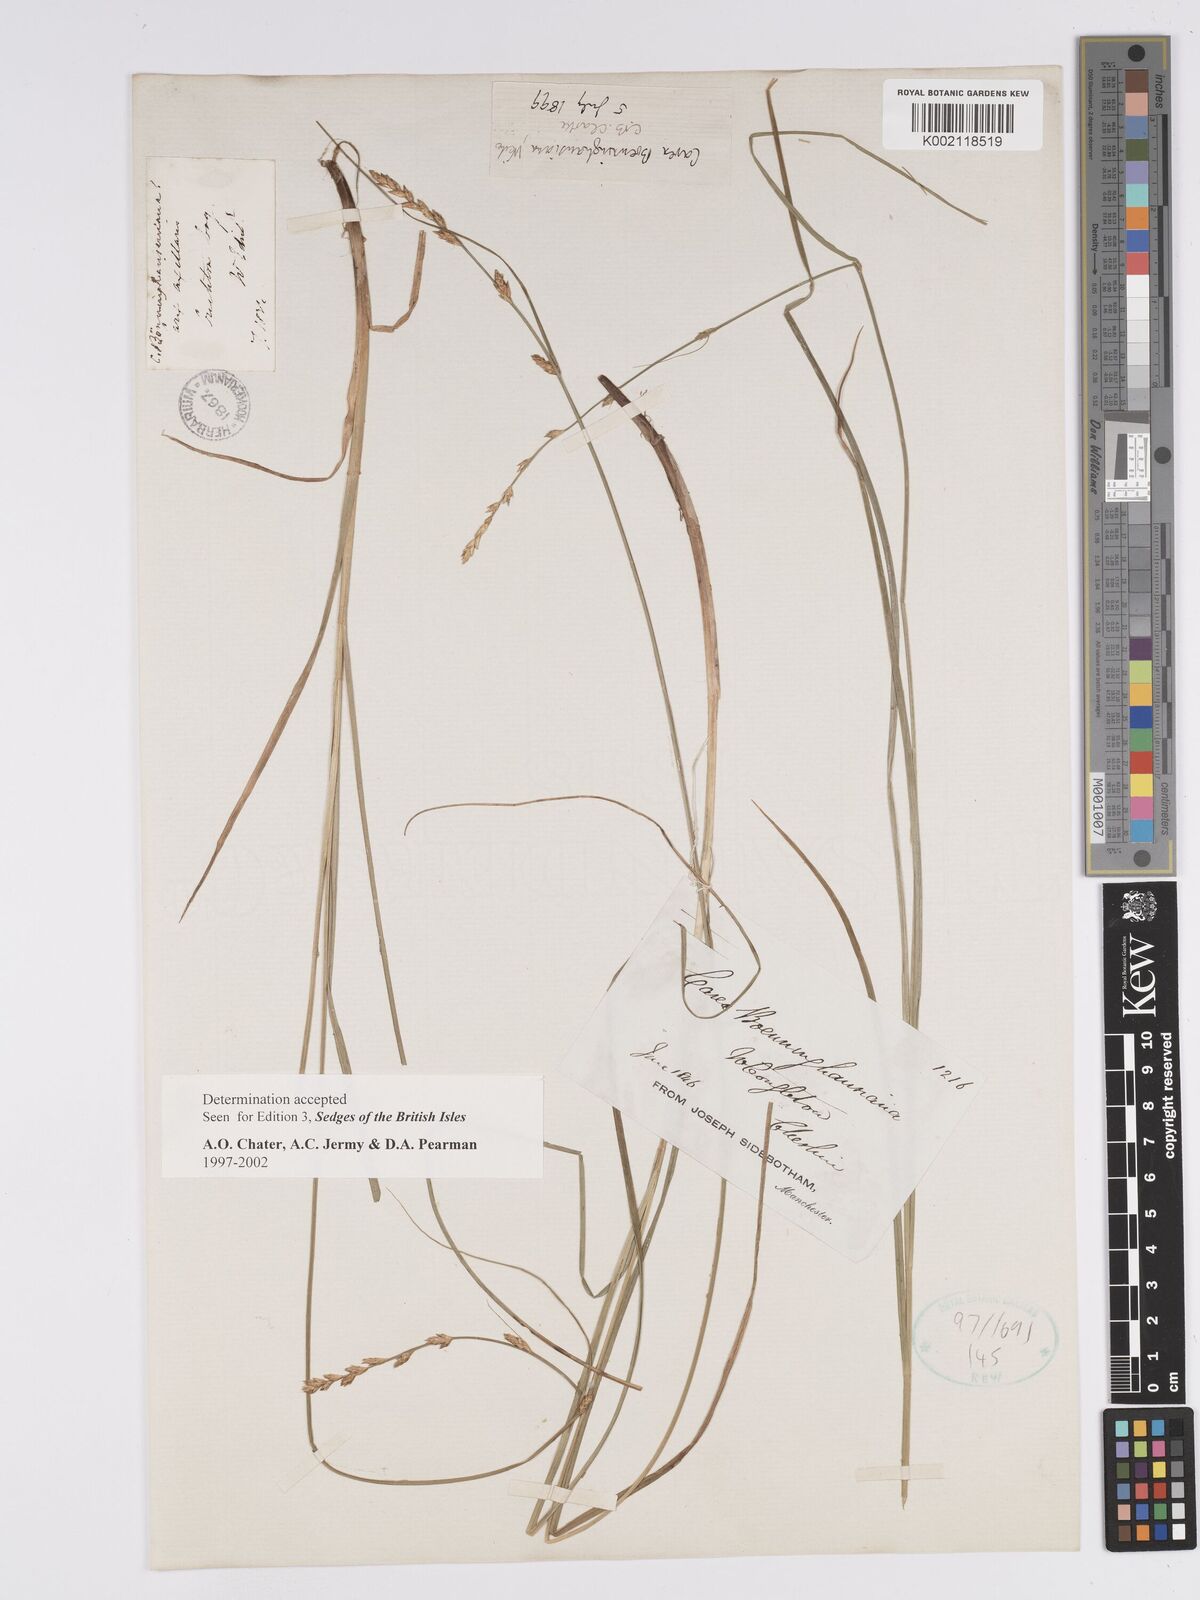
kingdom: Plantae
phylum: Tracheophyta
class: Liliopsida
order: Poales
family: Cyperaceae
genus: Carex
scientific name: Carex boenninghausiana
